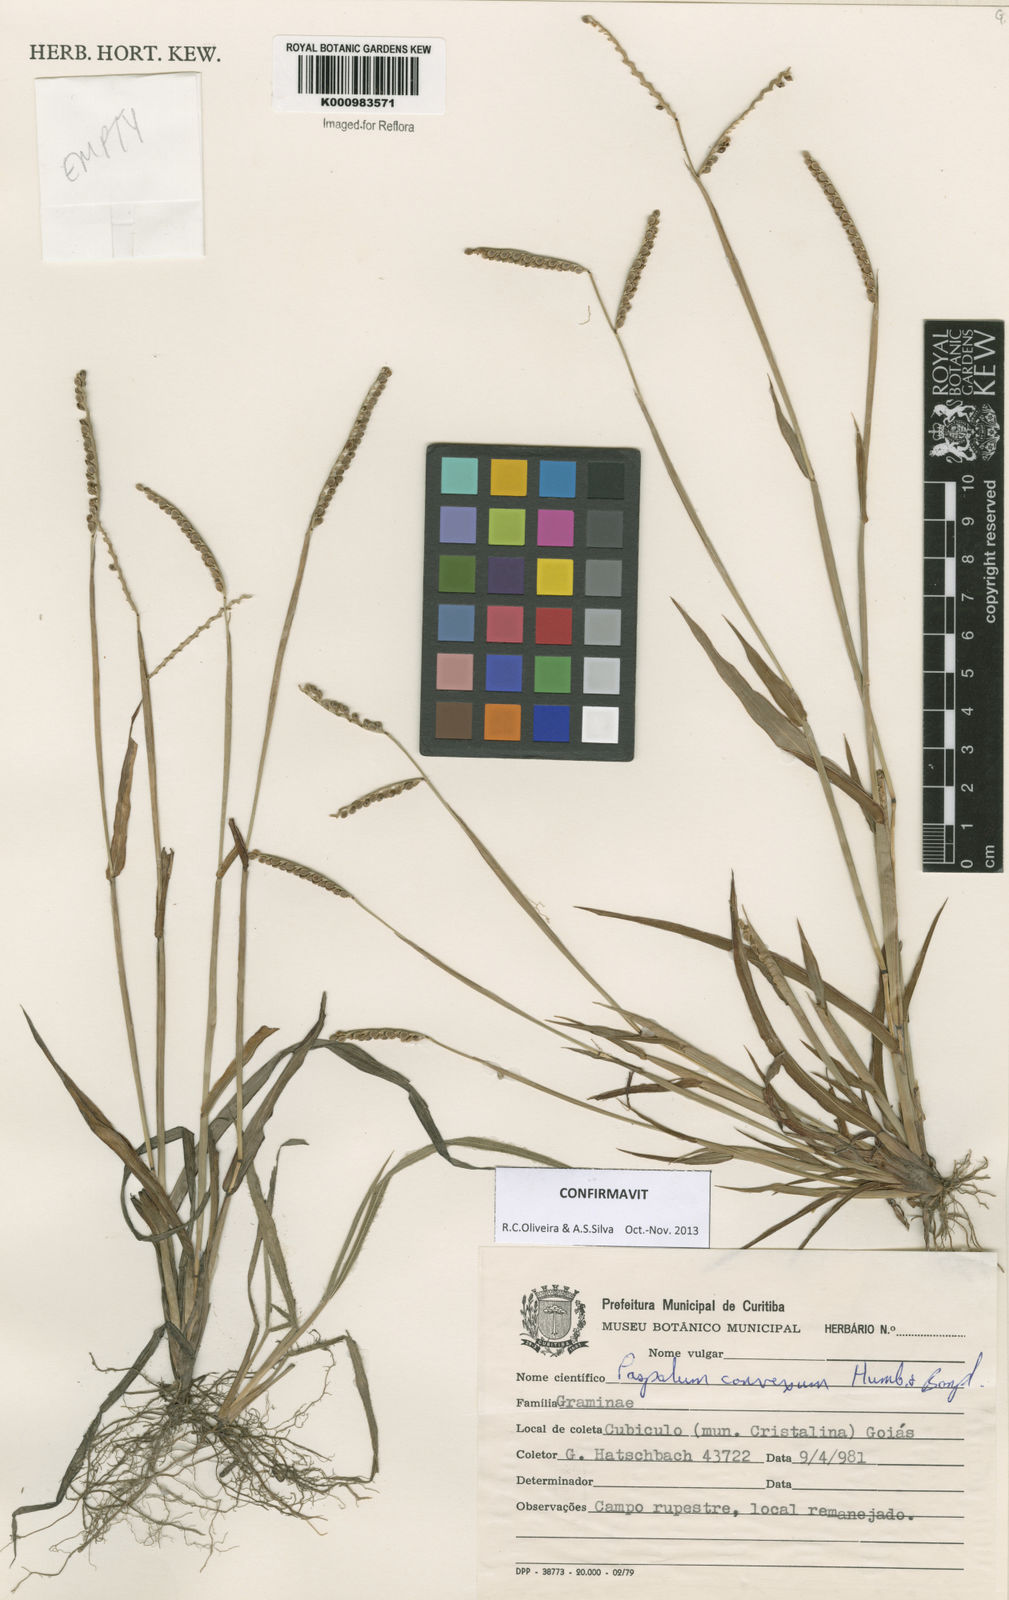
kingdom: Plantae
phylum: Tracheophyta
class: Liliopsida
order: Poales
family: Poaceae
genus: Paspalum
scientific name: Paspalum
